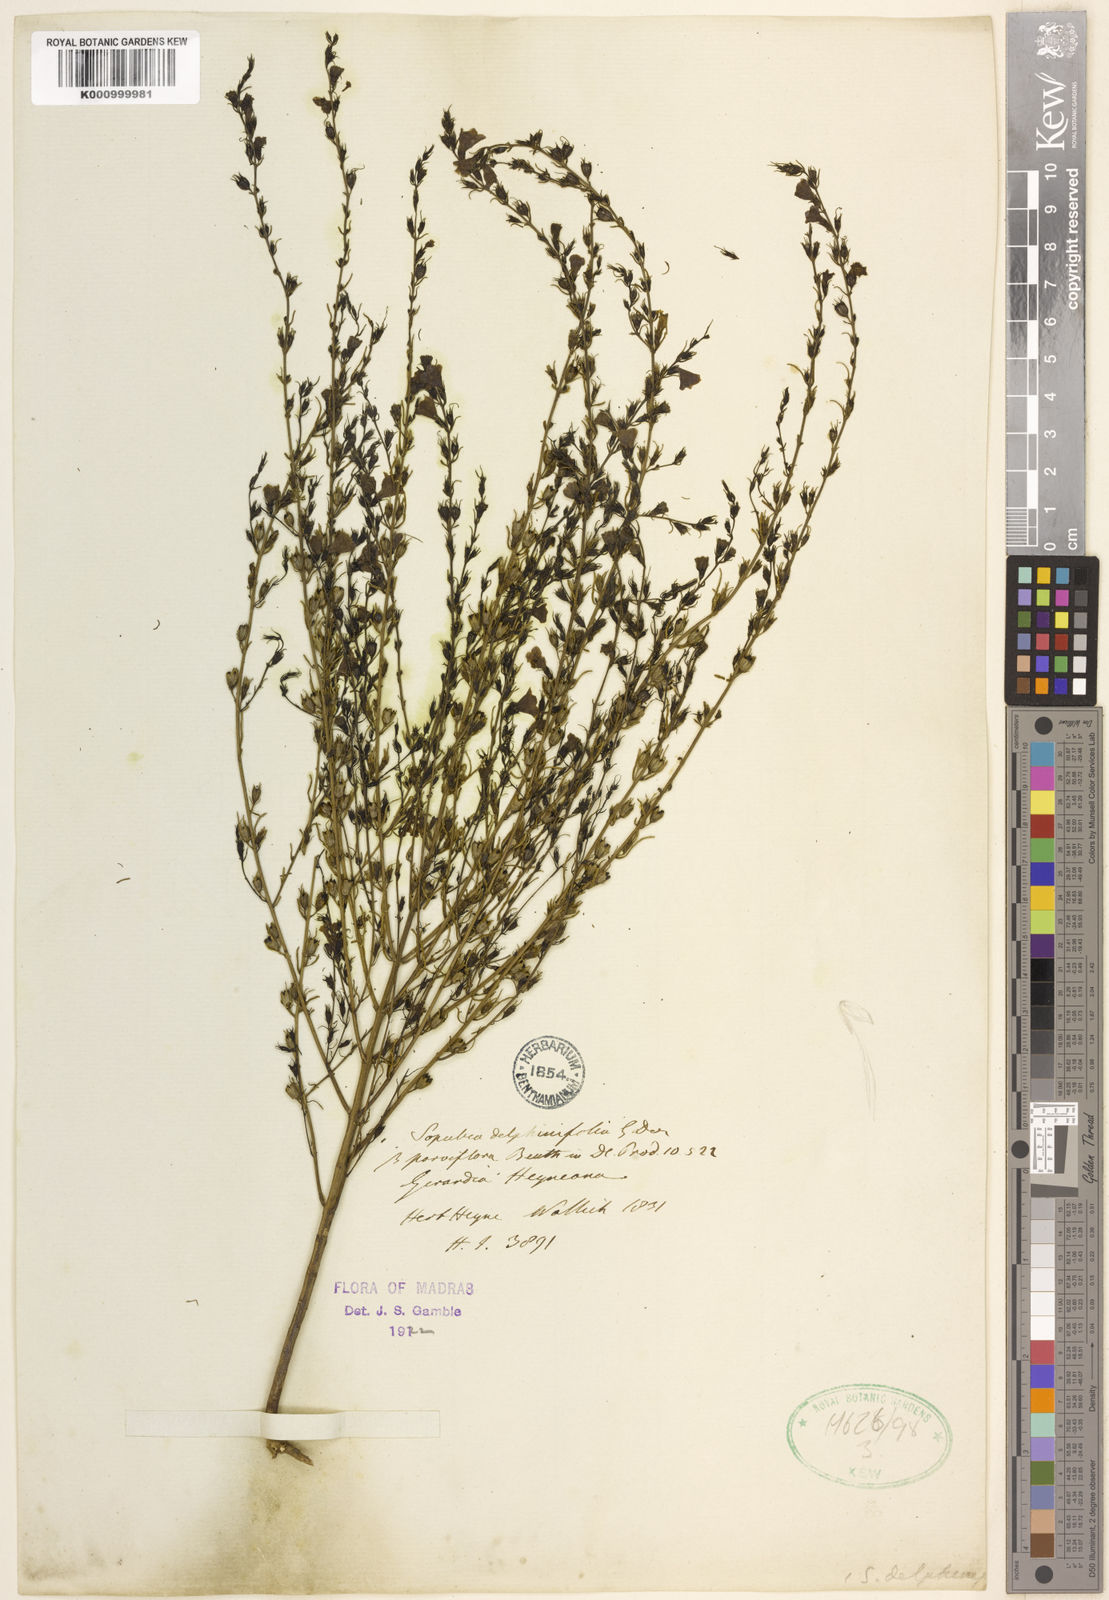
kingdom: Plantae
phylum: Tracheophyta
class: Magnoliopsida
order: Lamiales
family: Orobanchaceae
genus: Parasopubia
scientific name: Parasopubia delphiniifolia
